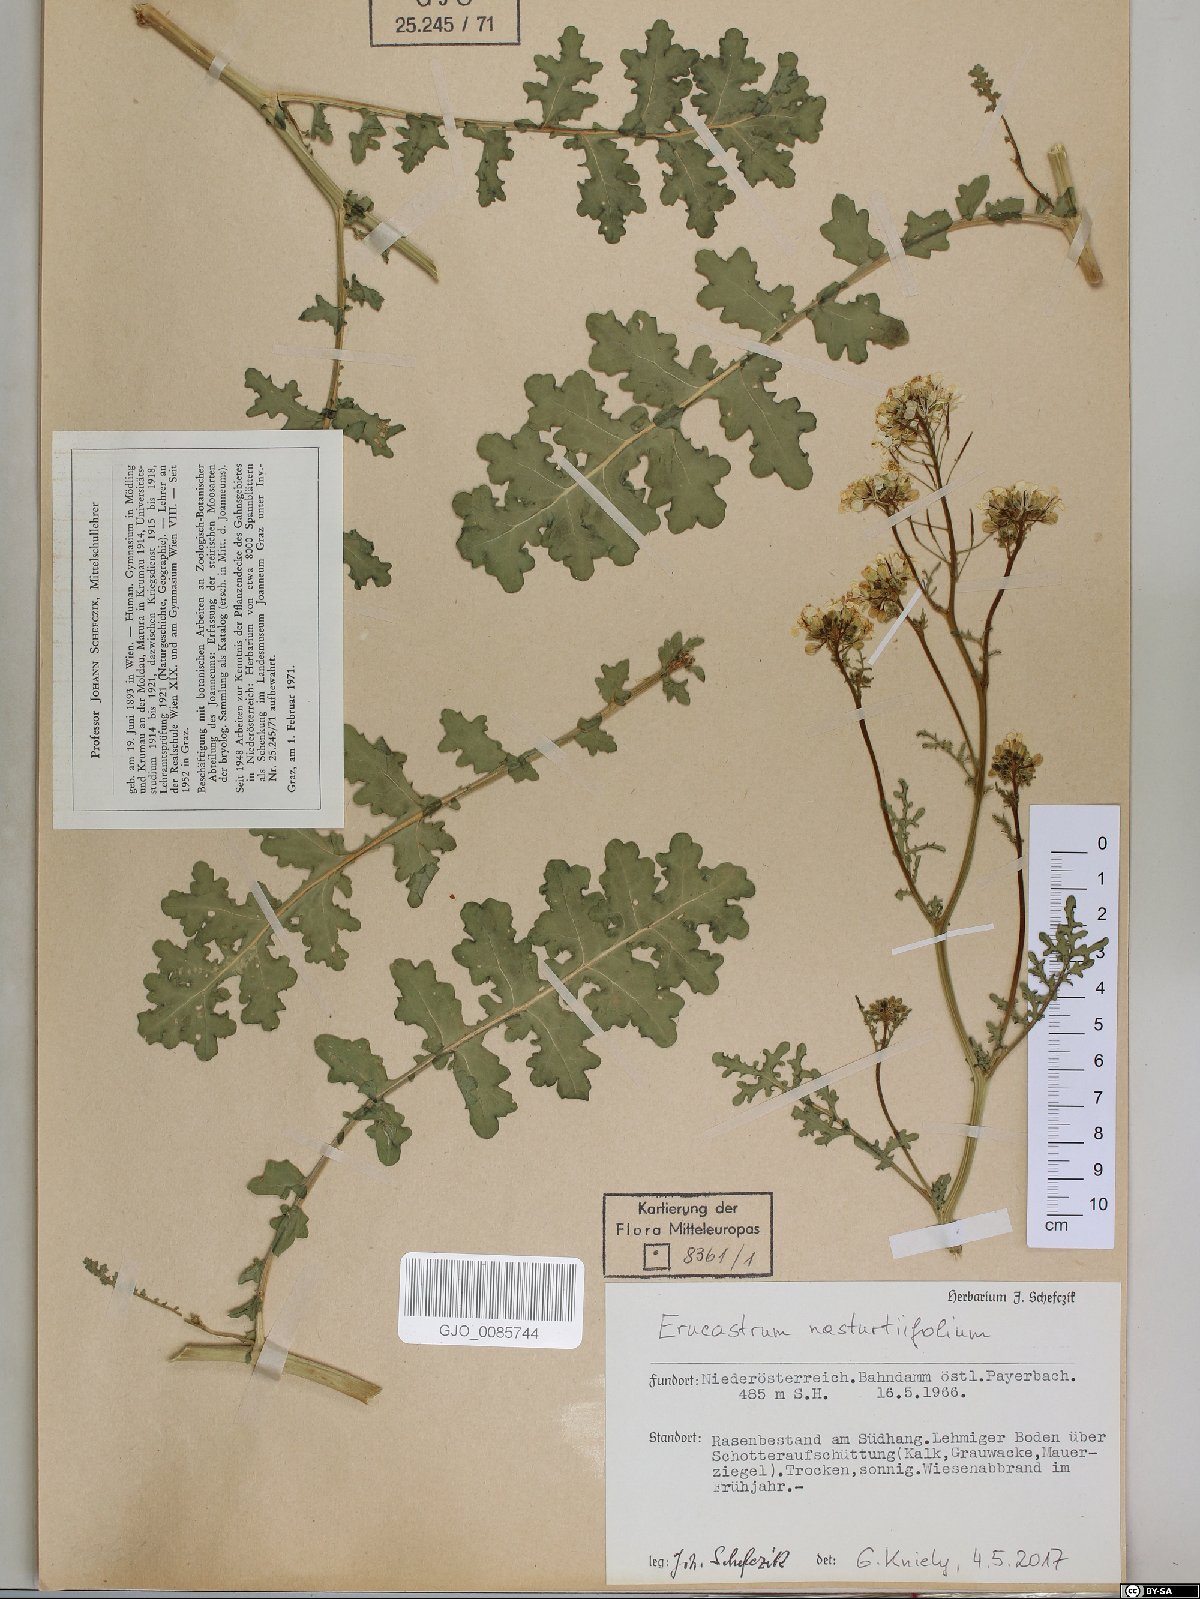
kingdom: Plantae
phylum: Tracheophyta
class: Magnoliopsida
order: Brassicales
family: Brassicaceae
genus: Erucastrum
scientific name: Erucastrum nasturtiifolium
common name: Watercress-leaf rocket
